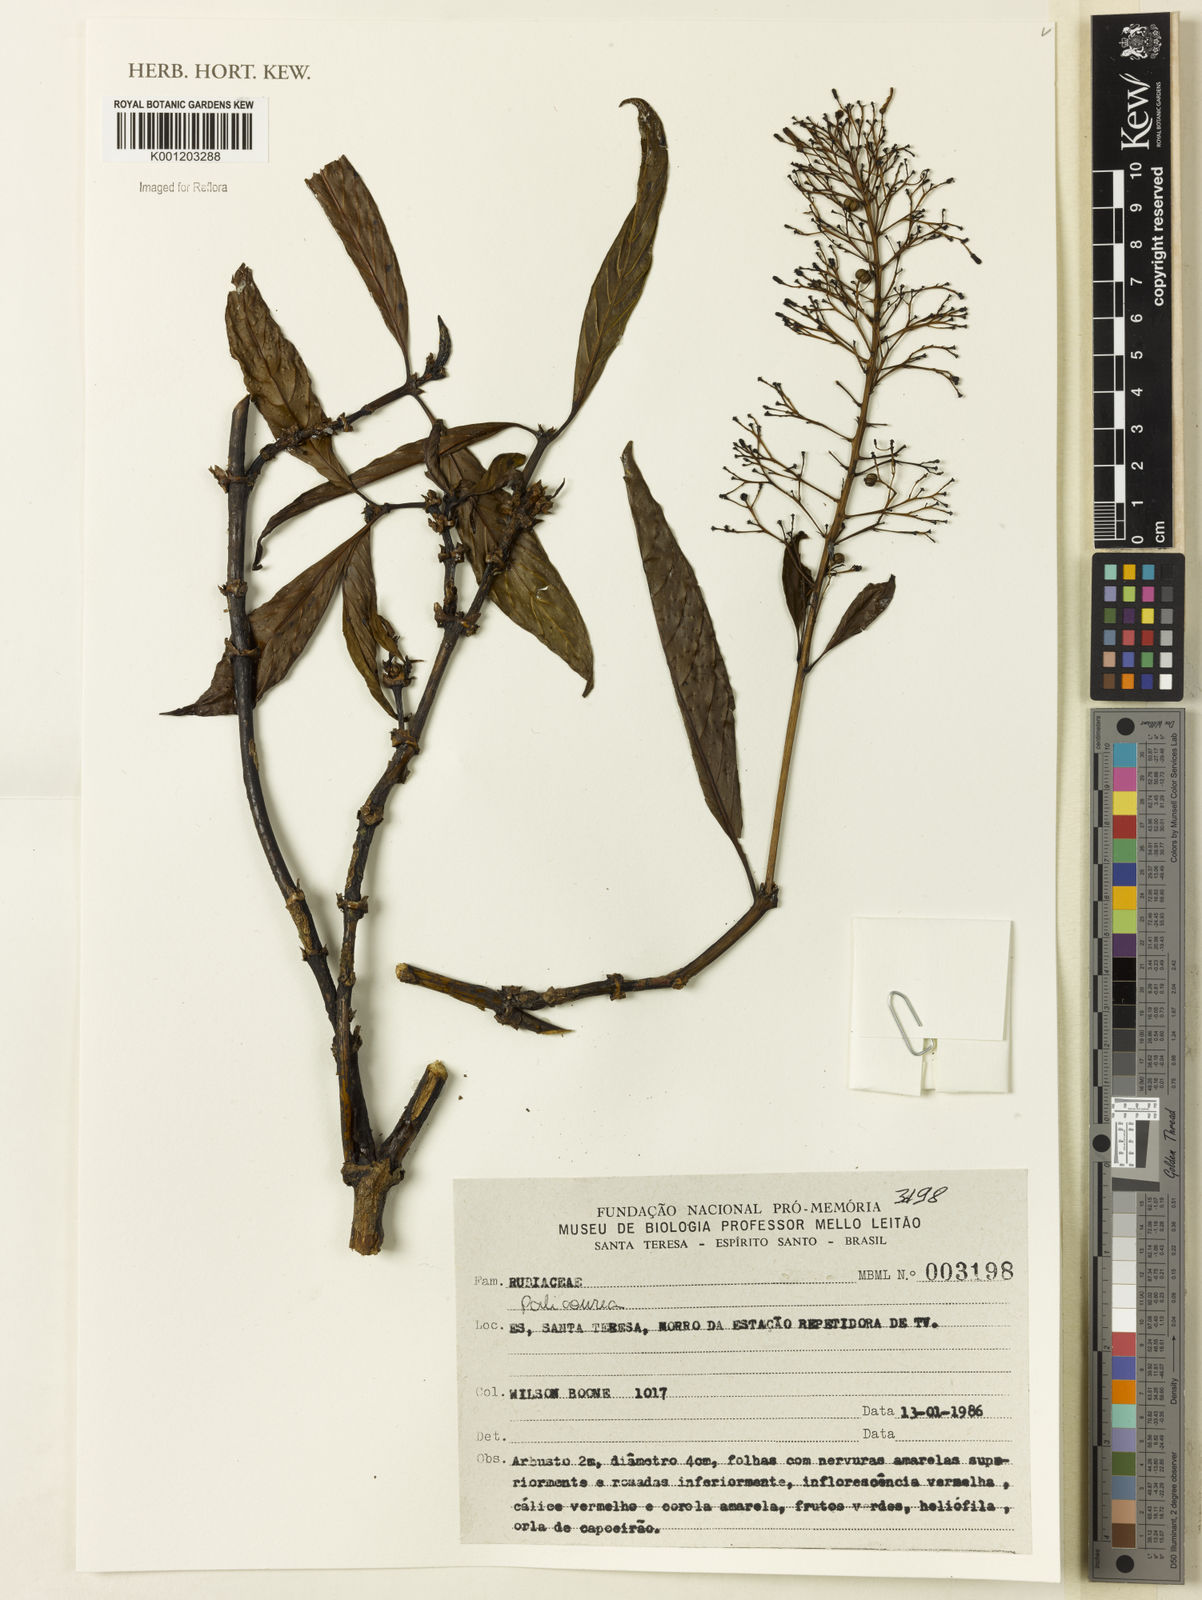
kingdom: Plantae
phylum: Tracheophyta
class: Magnoliopsida
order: Gentianales
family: Rubiaceae
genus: Palicourea
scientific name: Palicourea
